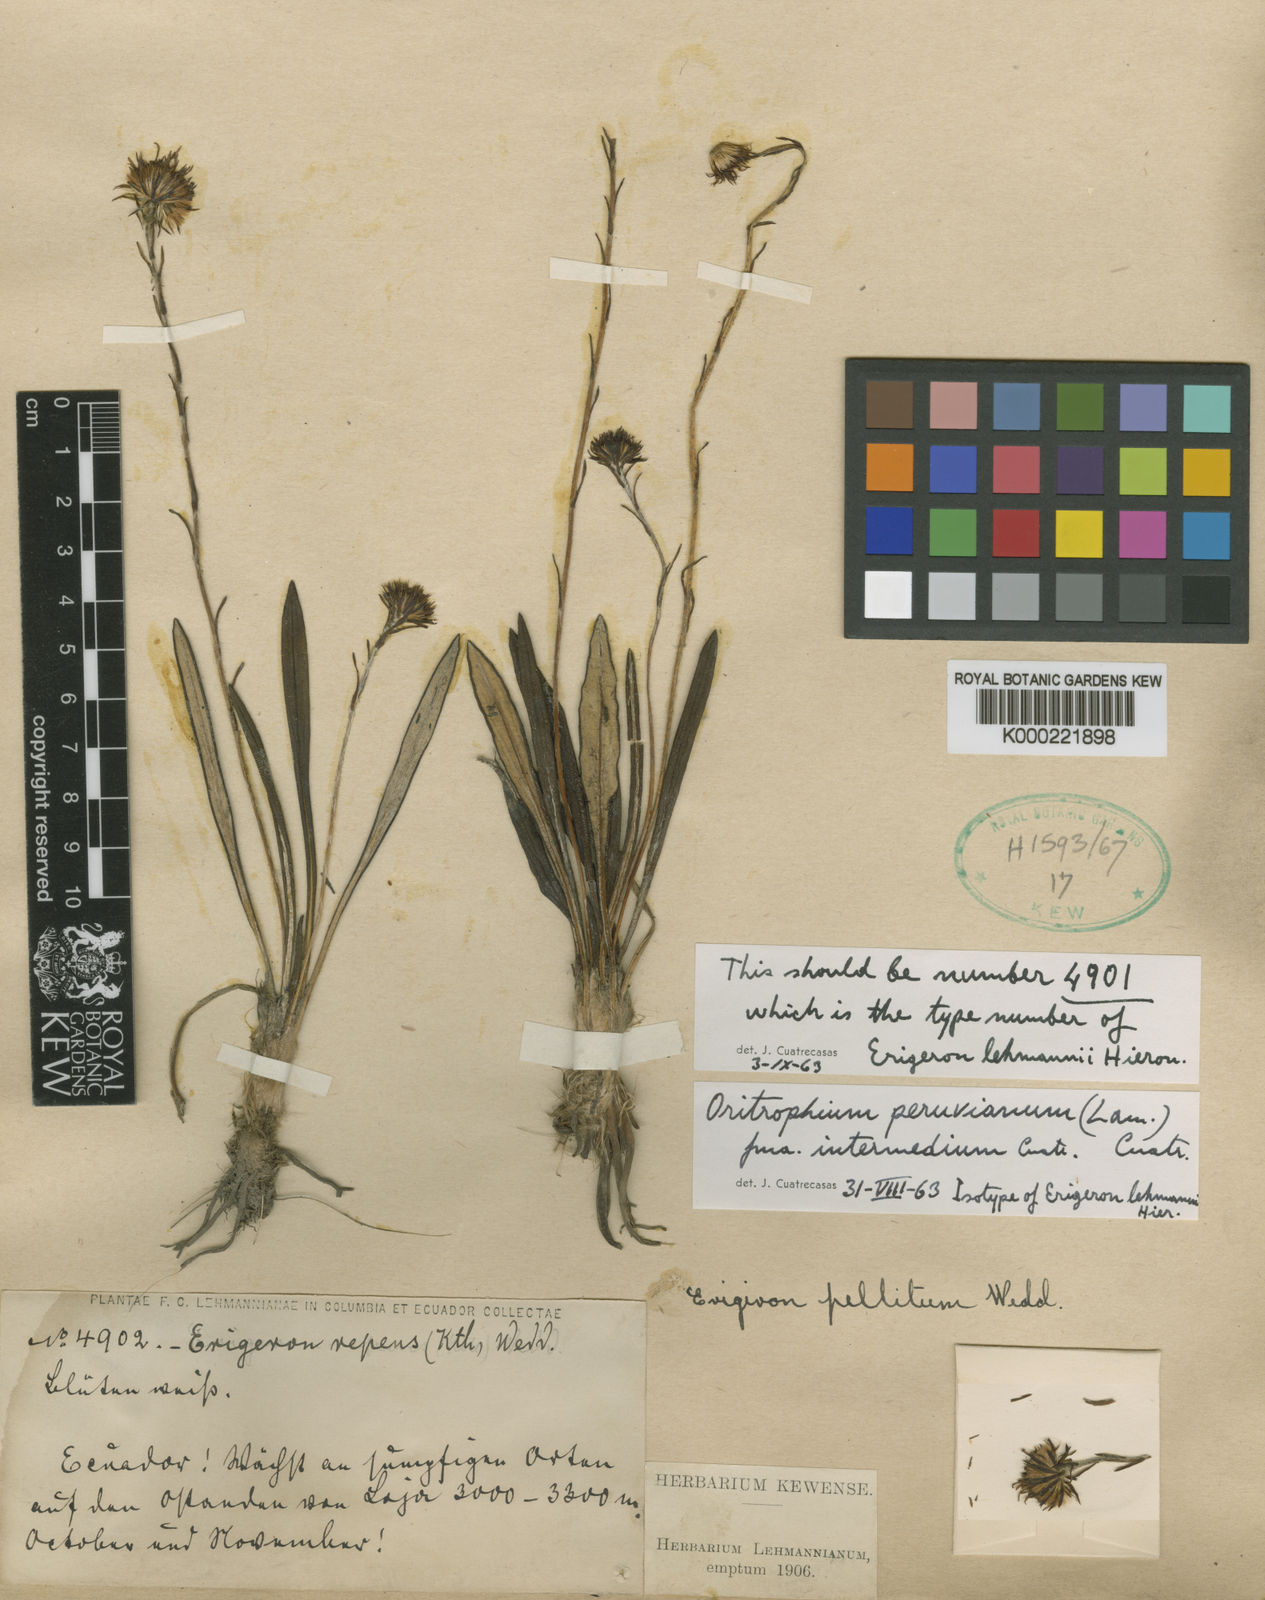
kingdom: Plantae
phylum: Tracheophyta
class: Magnoliopsida
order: Asterales
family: Asteraceae
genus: Oritrophium
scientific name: Oritrophium repens
